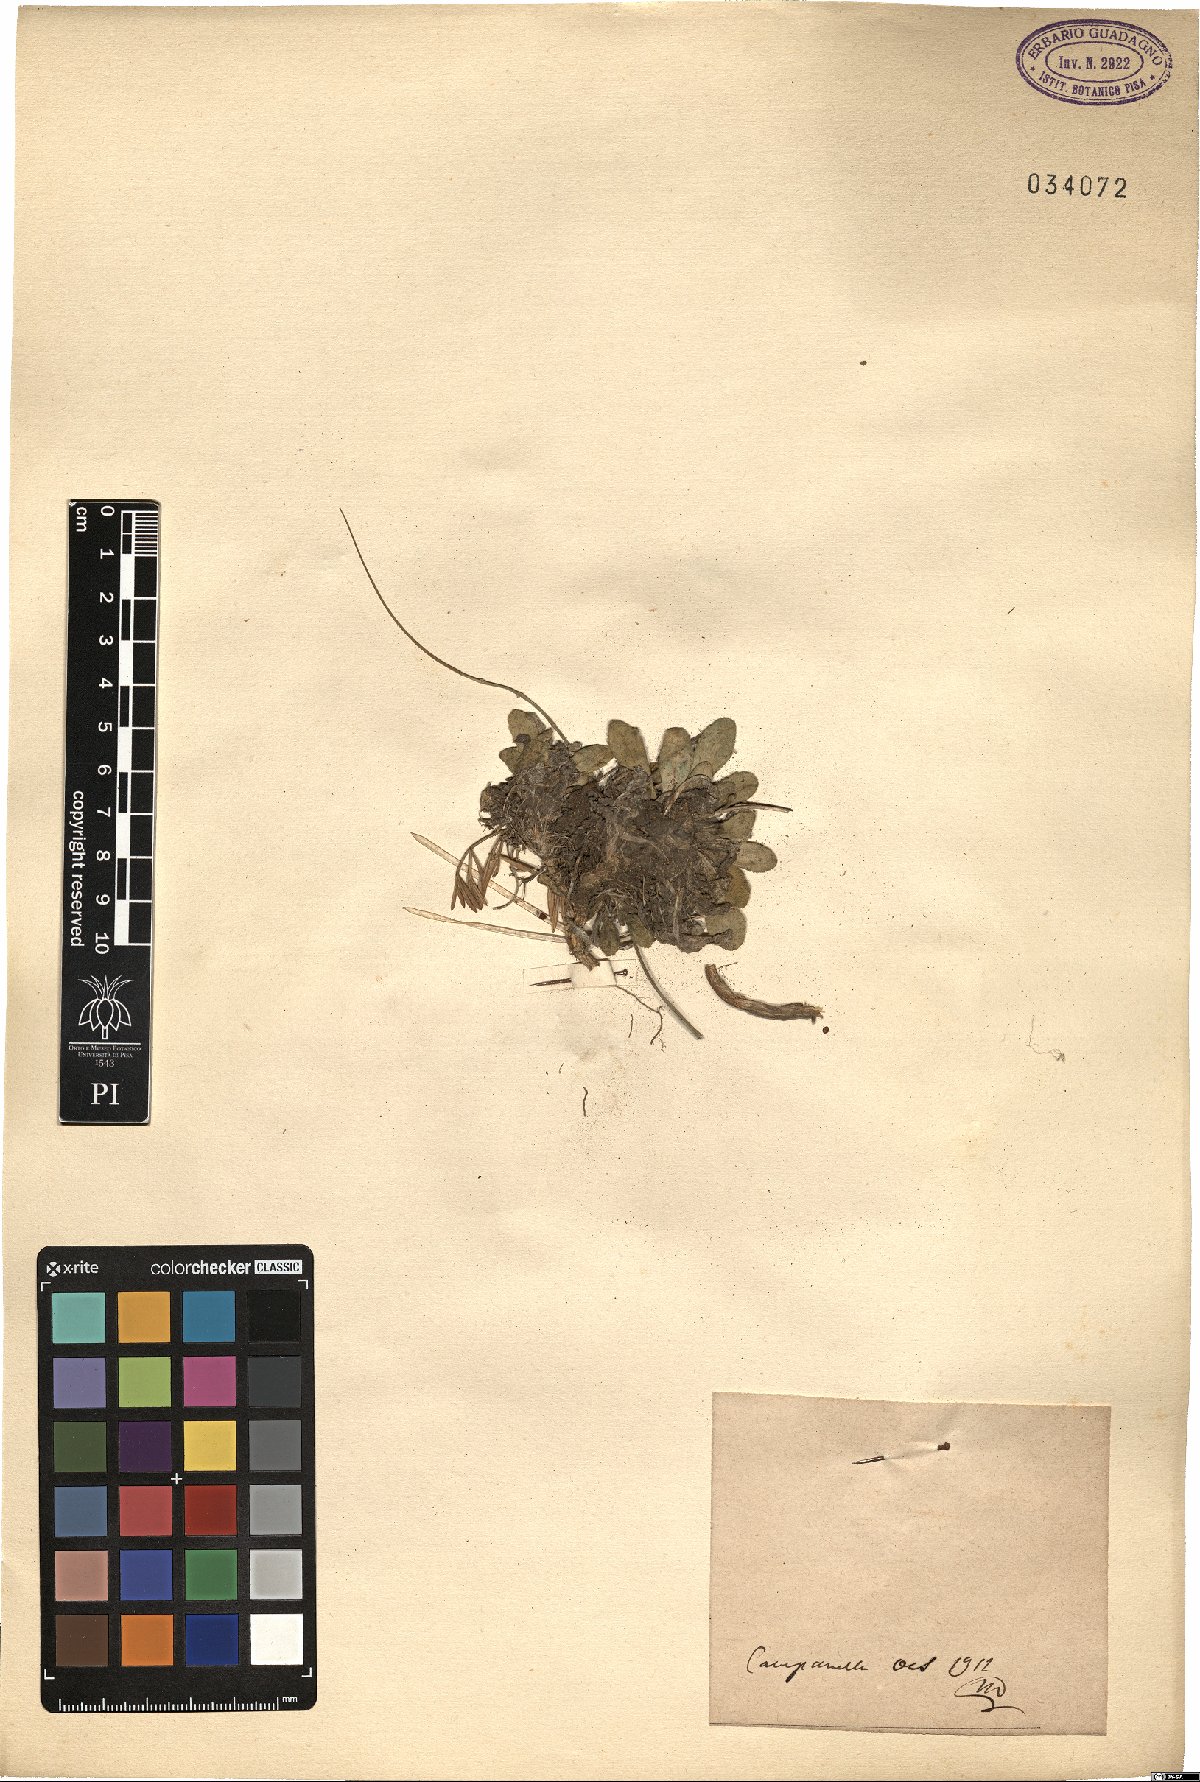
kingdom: Plantae
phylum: Tracheophyta
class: Magnoliopsida
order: Brassicales
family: Brassicaceae
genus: Arabis
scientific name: Arabis
